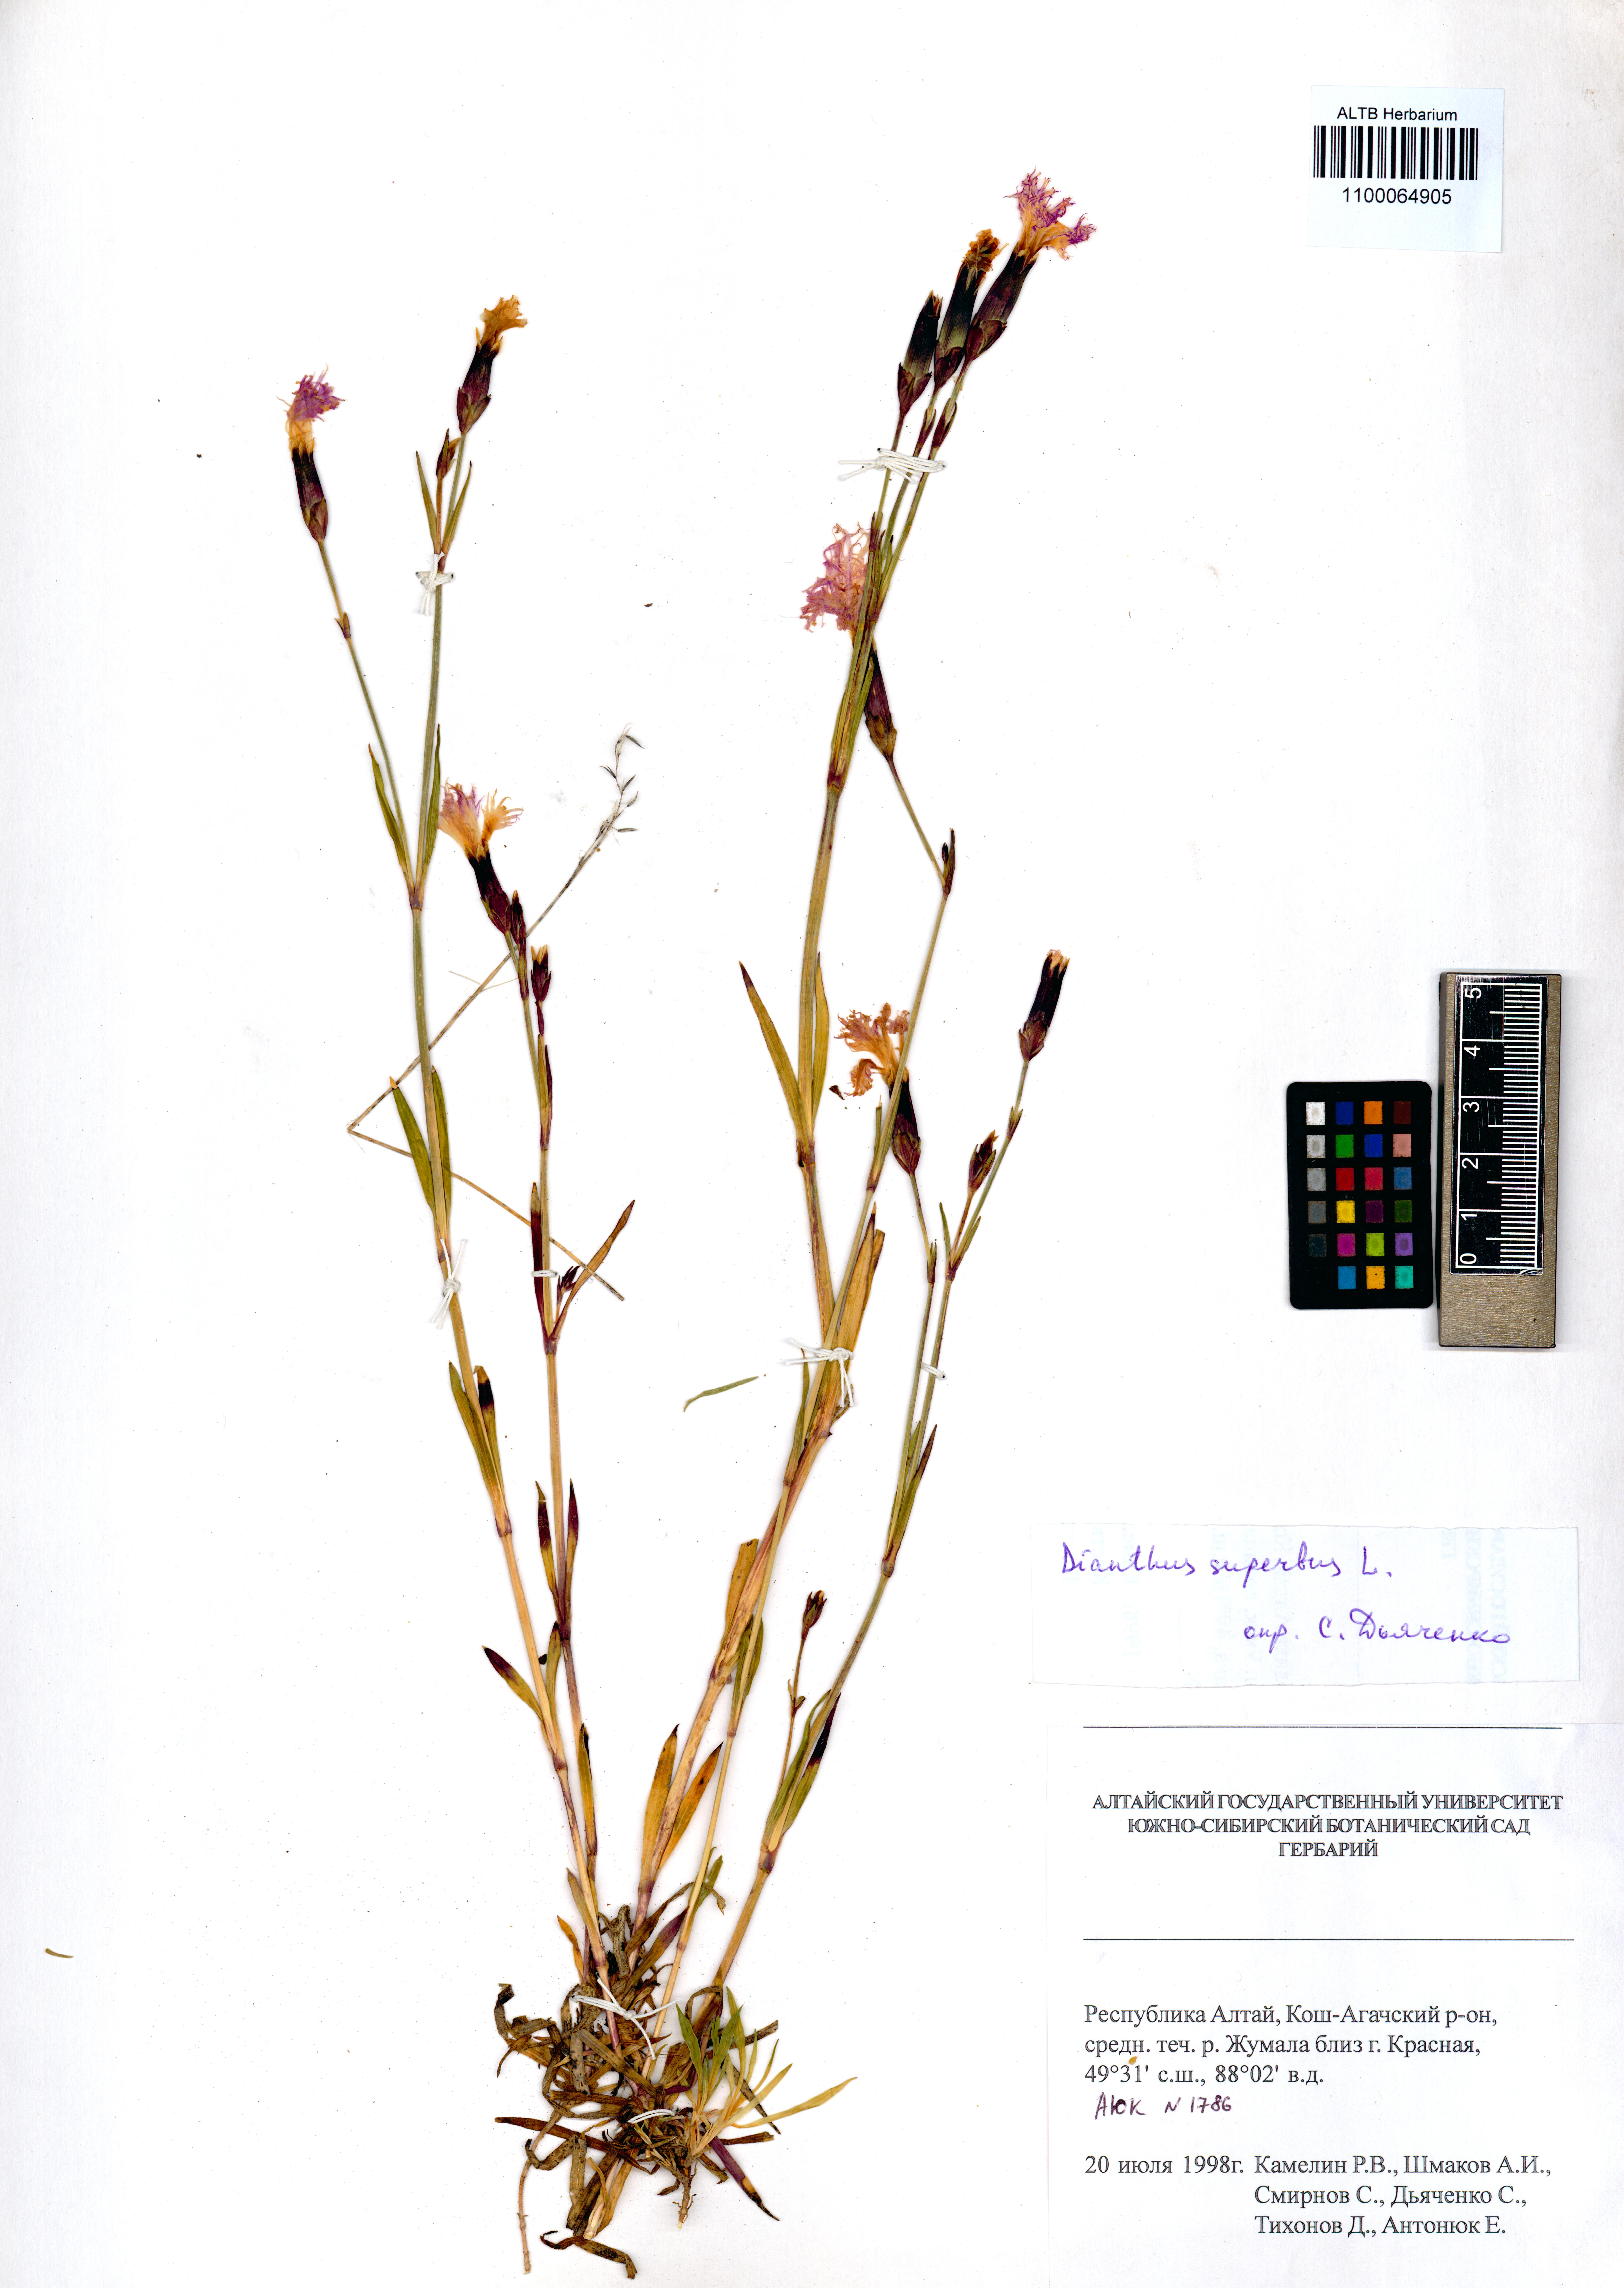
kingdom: Plantae
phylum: Tracheophyta
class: Magnoliopsida
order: Caryophyllales
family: Caryophyllaceae
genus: Dianthus
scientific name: Dianthus superbus
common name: Fringed pink
